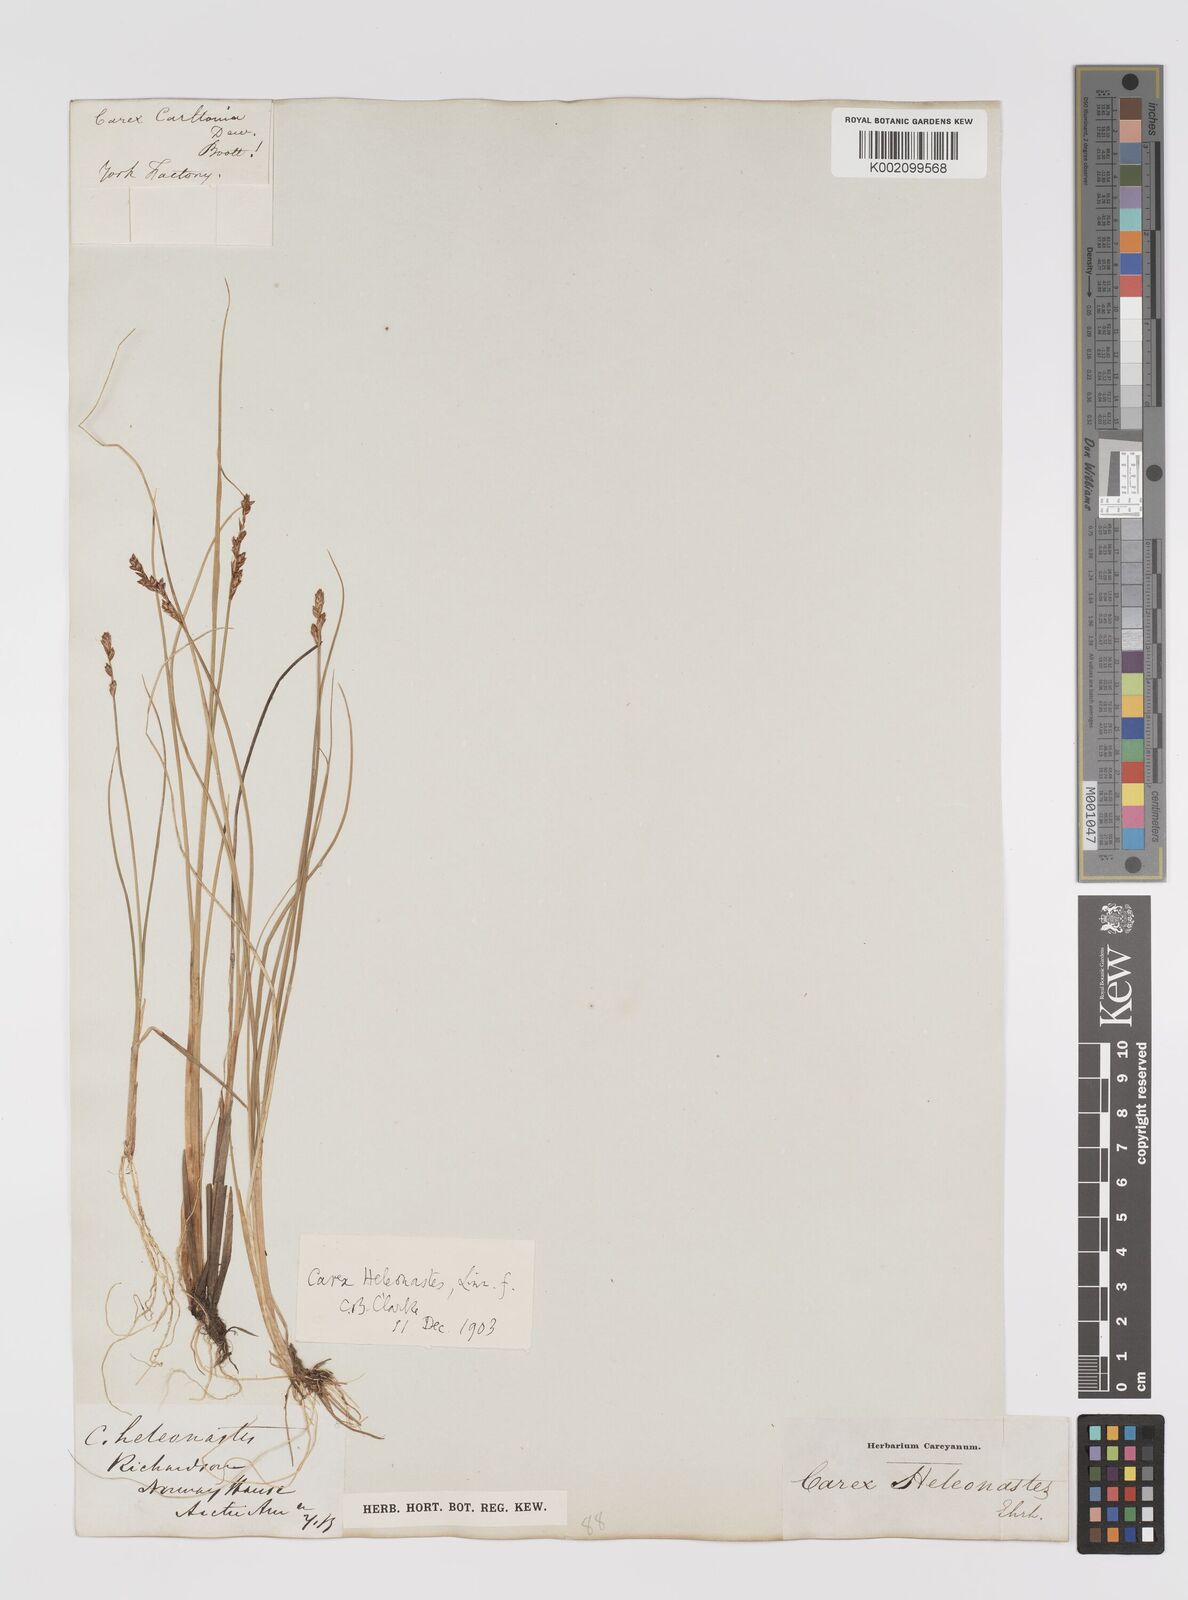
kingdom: Plantae
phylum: Tracheophyta
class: Liliopsida
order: Poales
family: Cyperaceae
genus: Carex
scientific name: Carex heleonastes
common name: Hudson bay sedge
